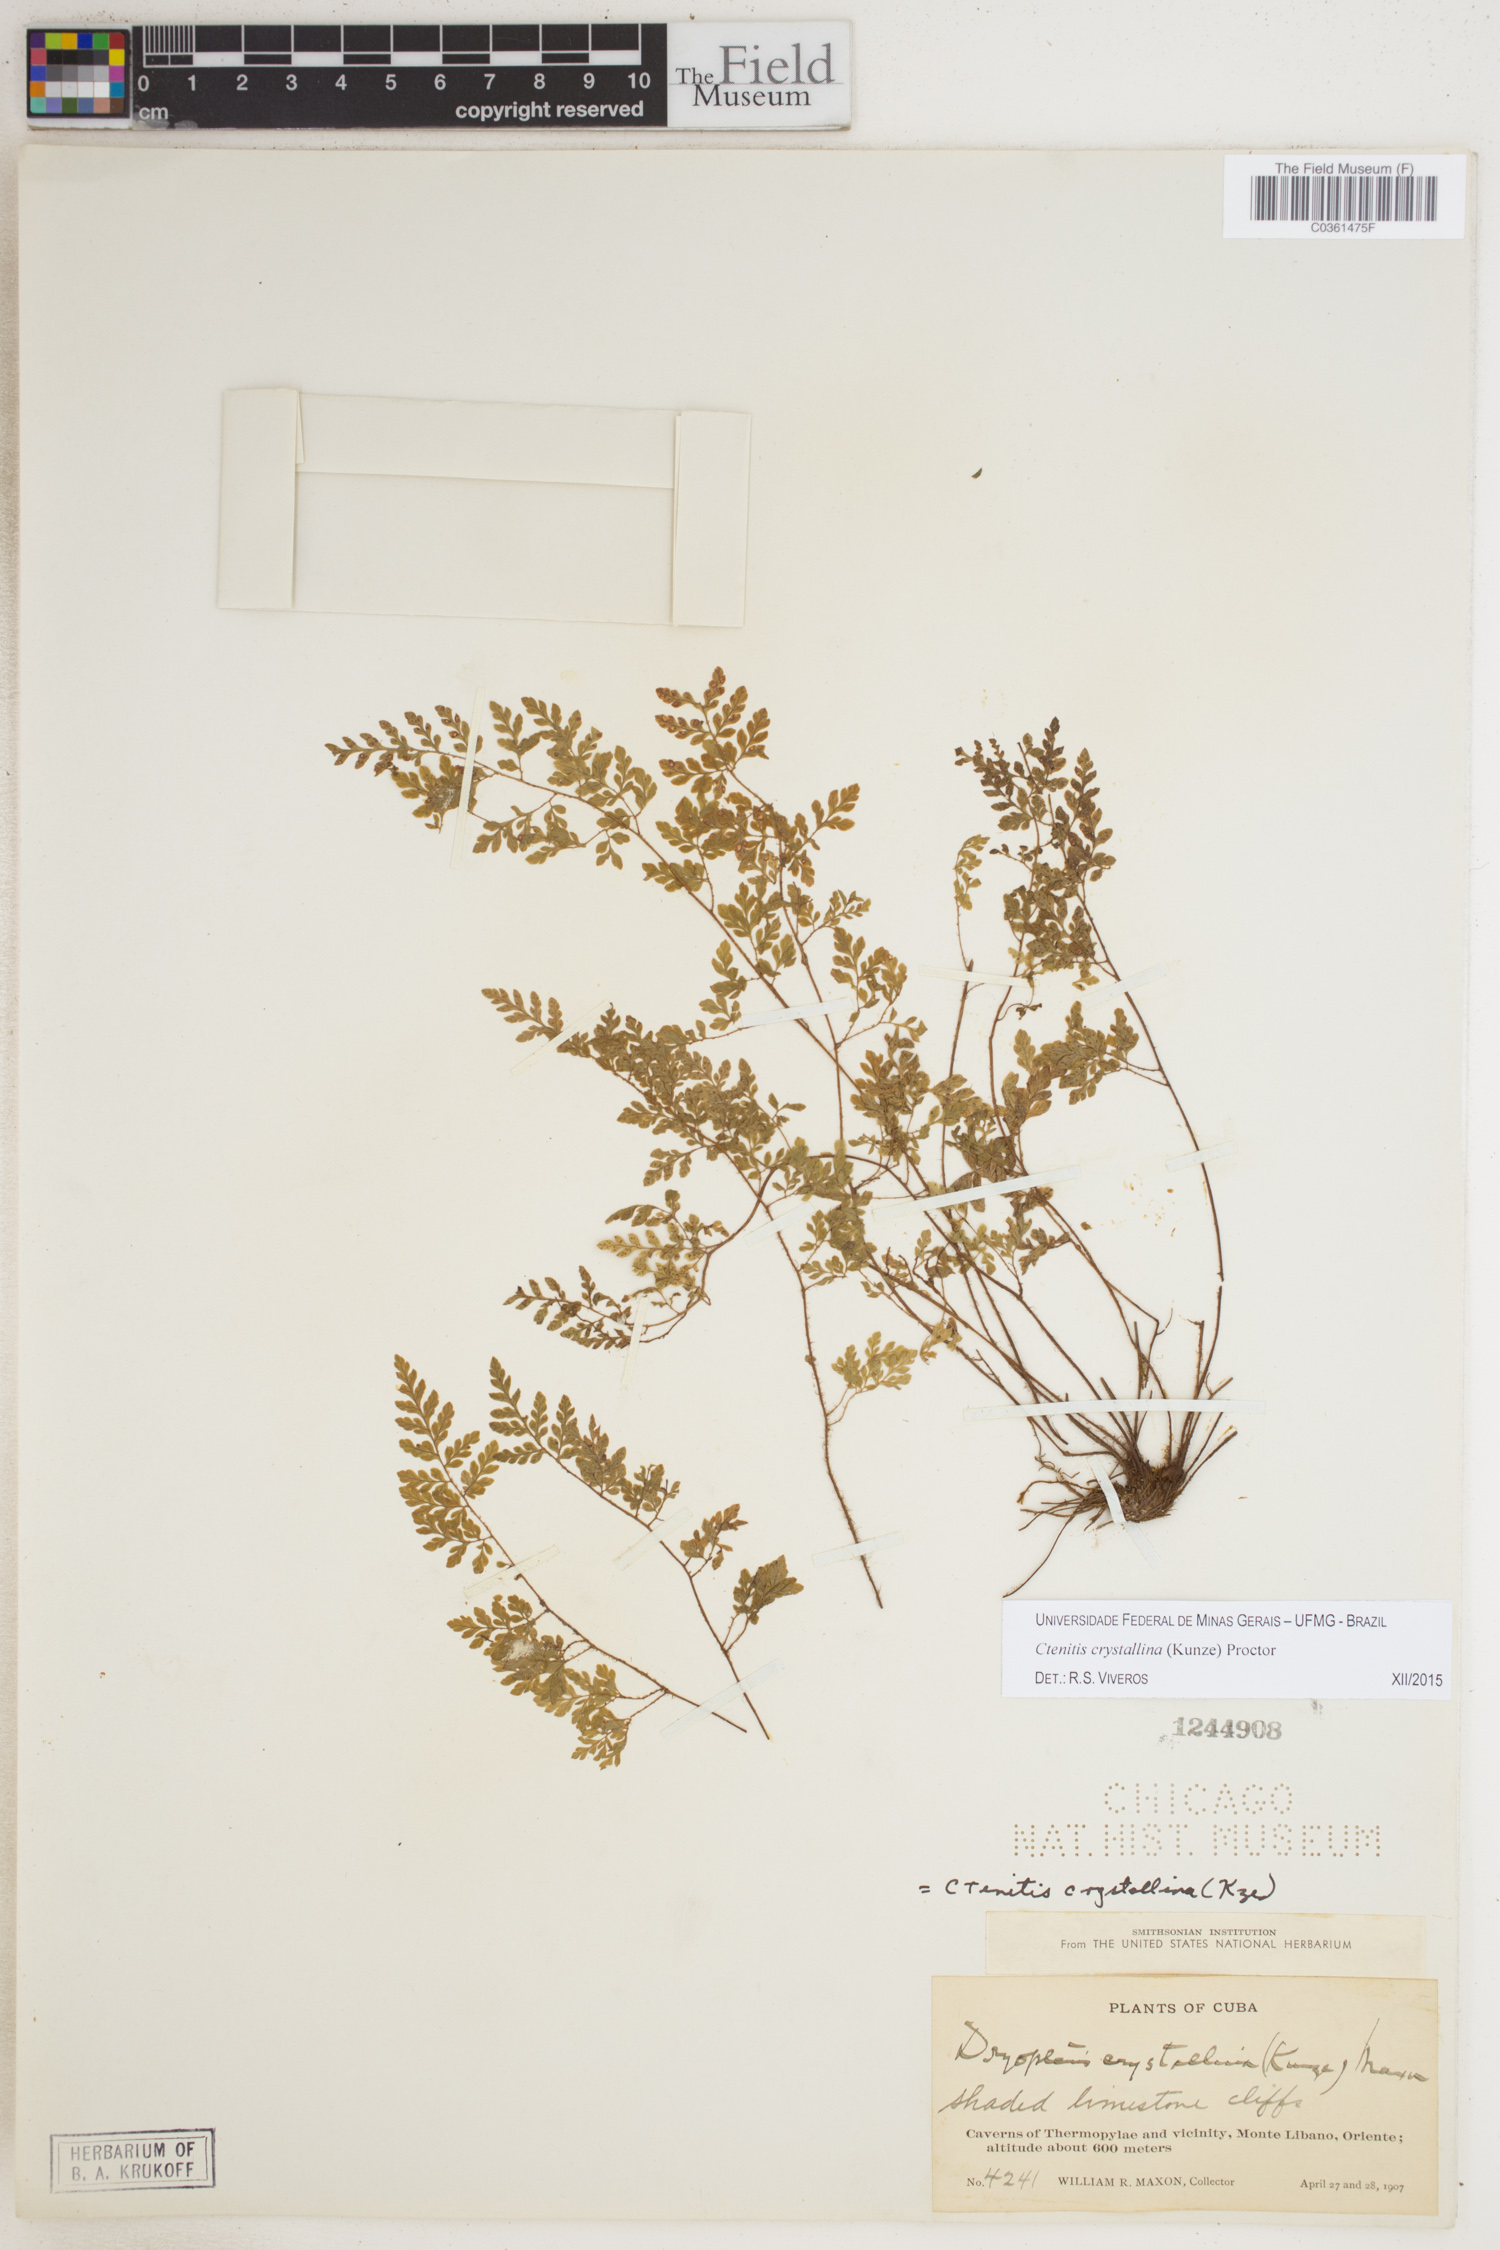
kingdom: Plantae
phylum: Tracheophyta
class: Polypodiopsida
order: Polypodiales
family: Dryopteridaceae
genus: Ctenitis
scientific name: Ctenitis crystallina
